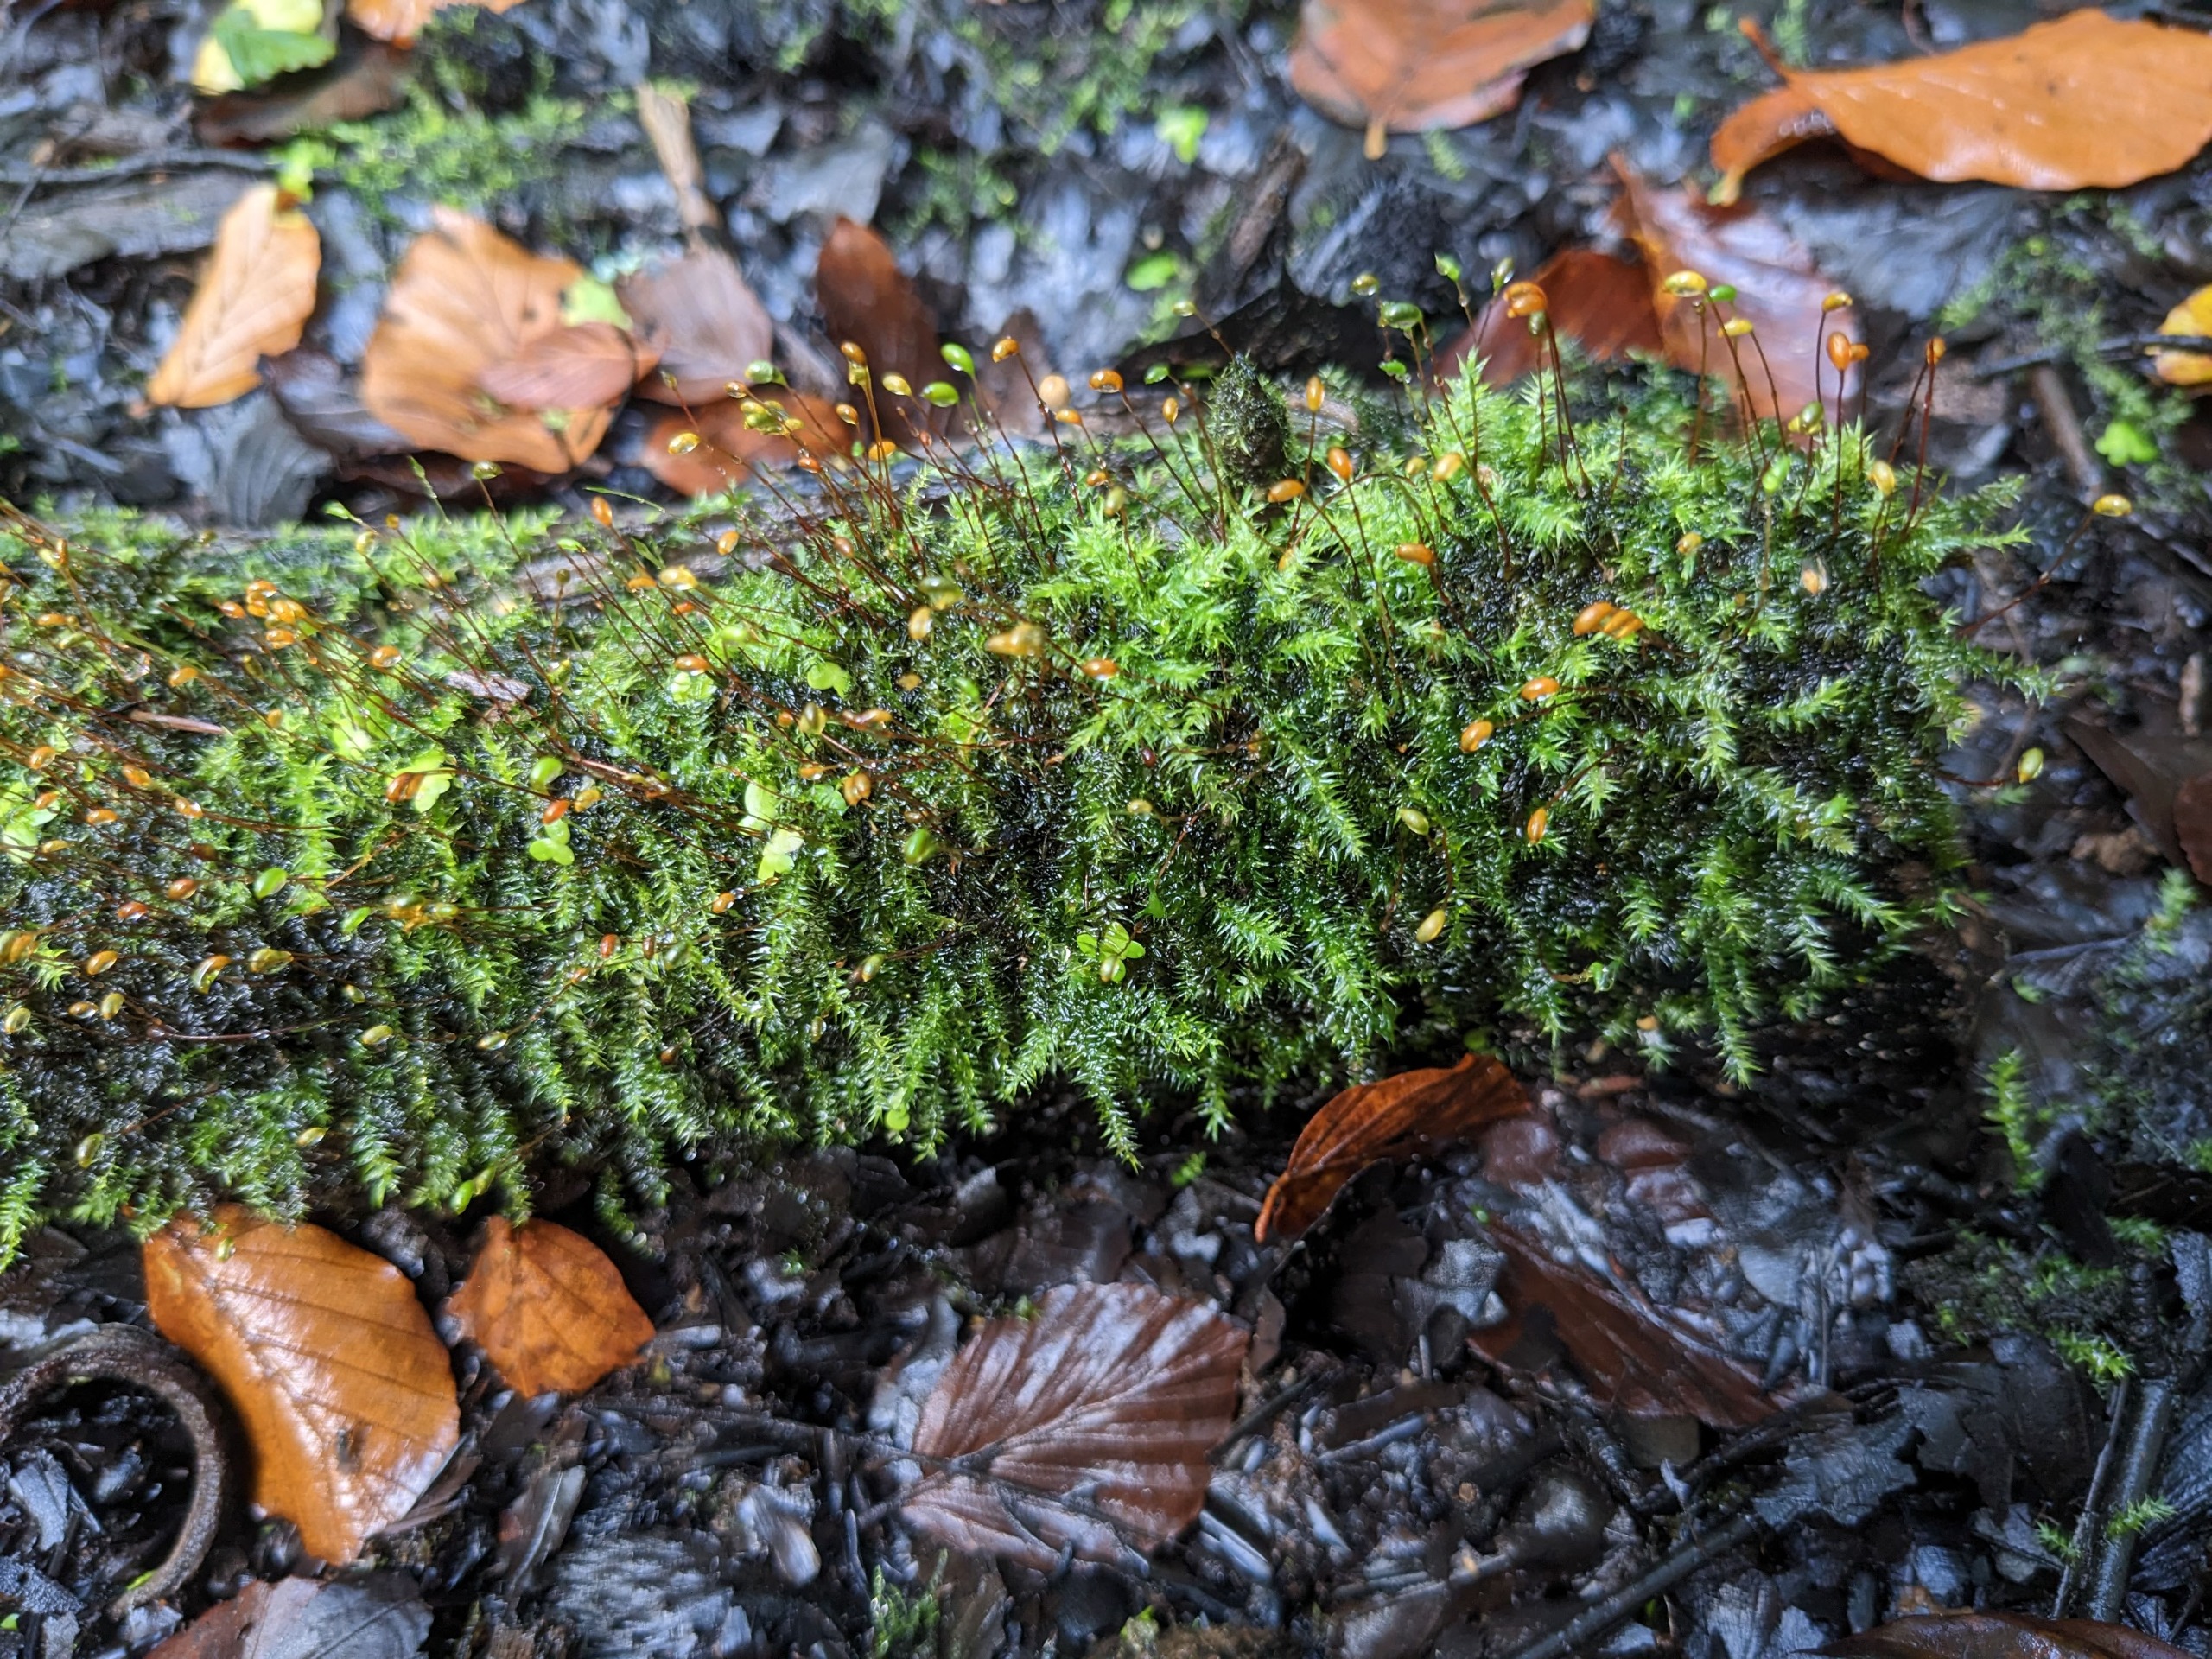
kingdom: Plantae
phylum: Bryophyta
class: Bryopsida
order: Hypnales
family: Amblystegiaceae
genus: Leptodictyum
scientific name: Leptodictyum riparium
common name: Stor pytmos
